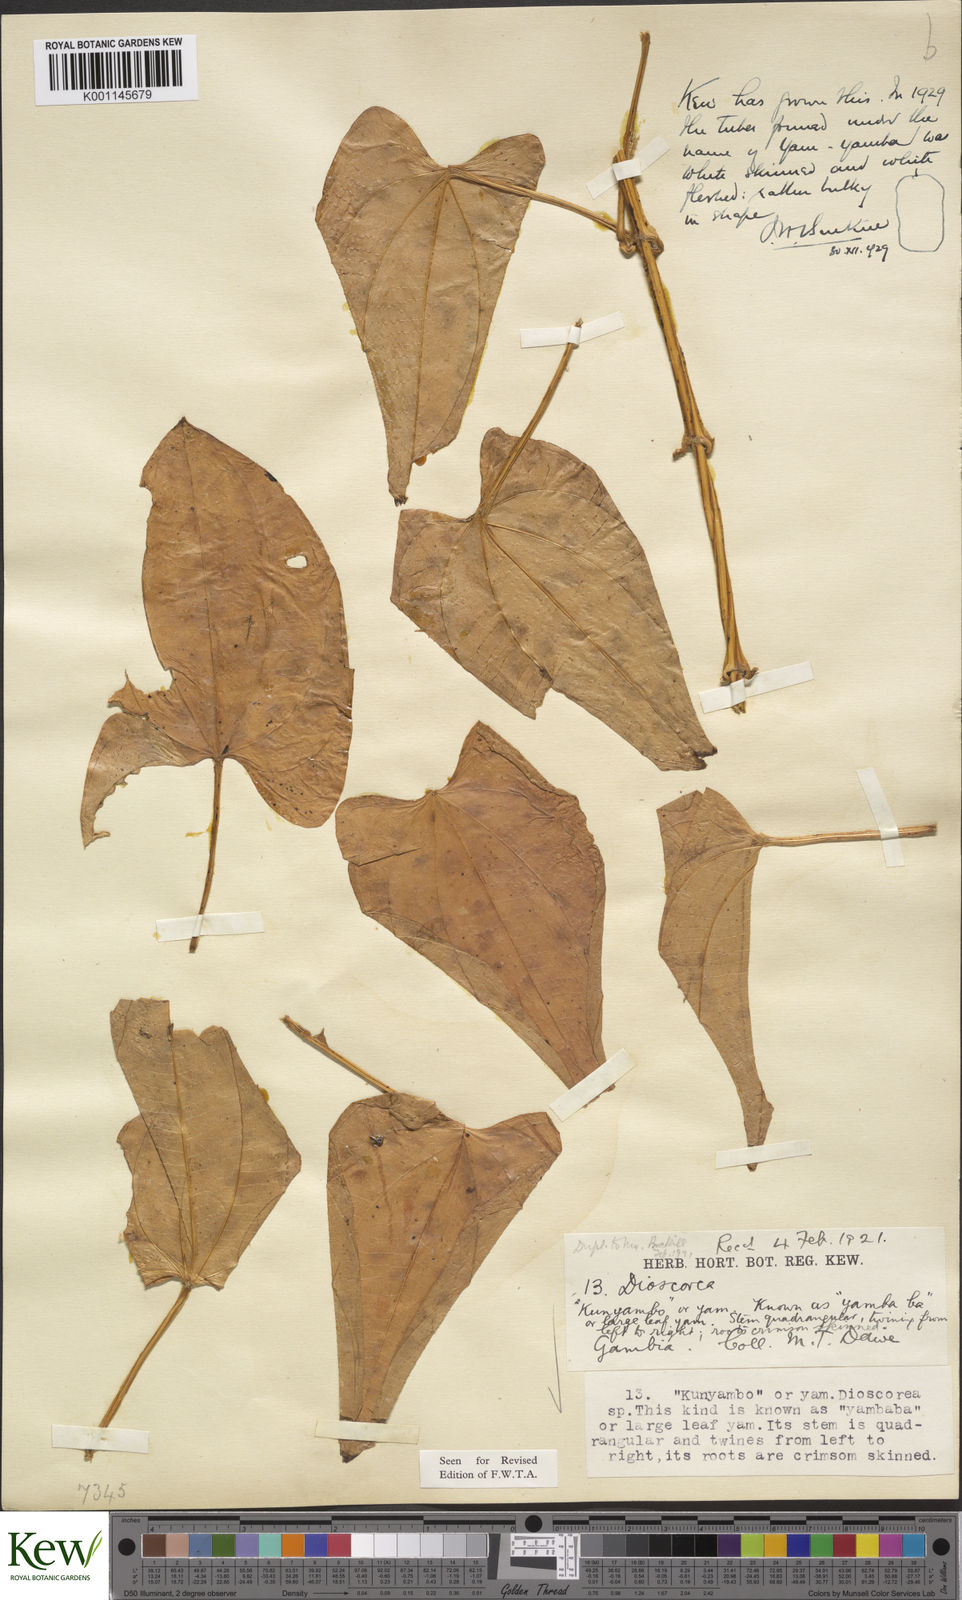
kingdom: Plantae
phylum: Tracheophyta
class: Liliopsida
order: Dioscoreales
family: Dioscoreaceae
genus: Dioscorea
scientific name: Dioscorea alata
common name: Water yam
